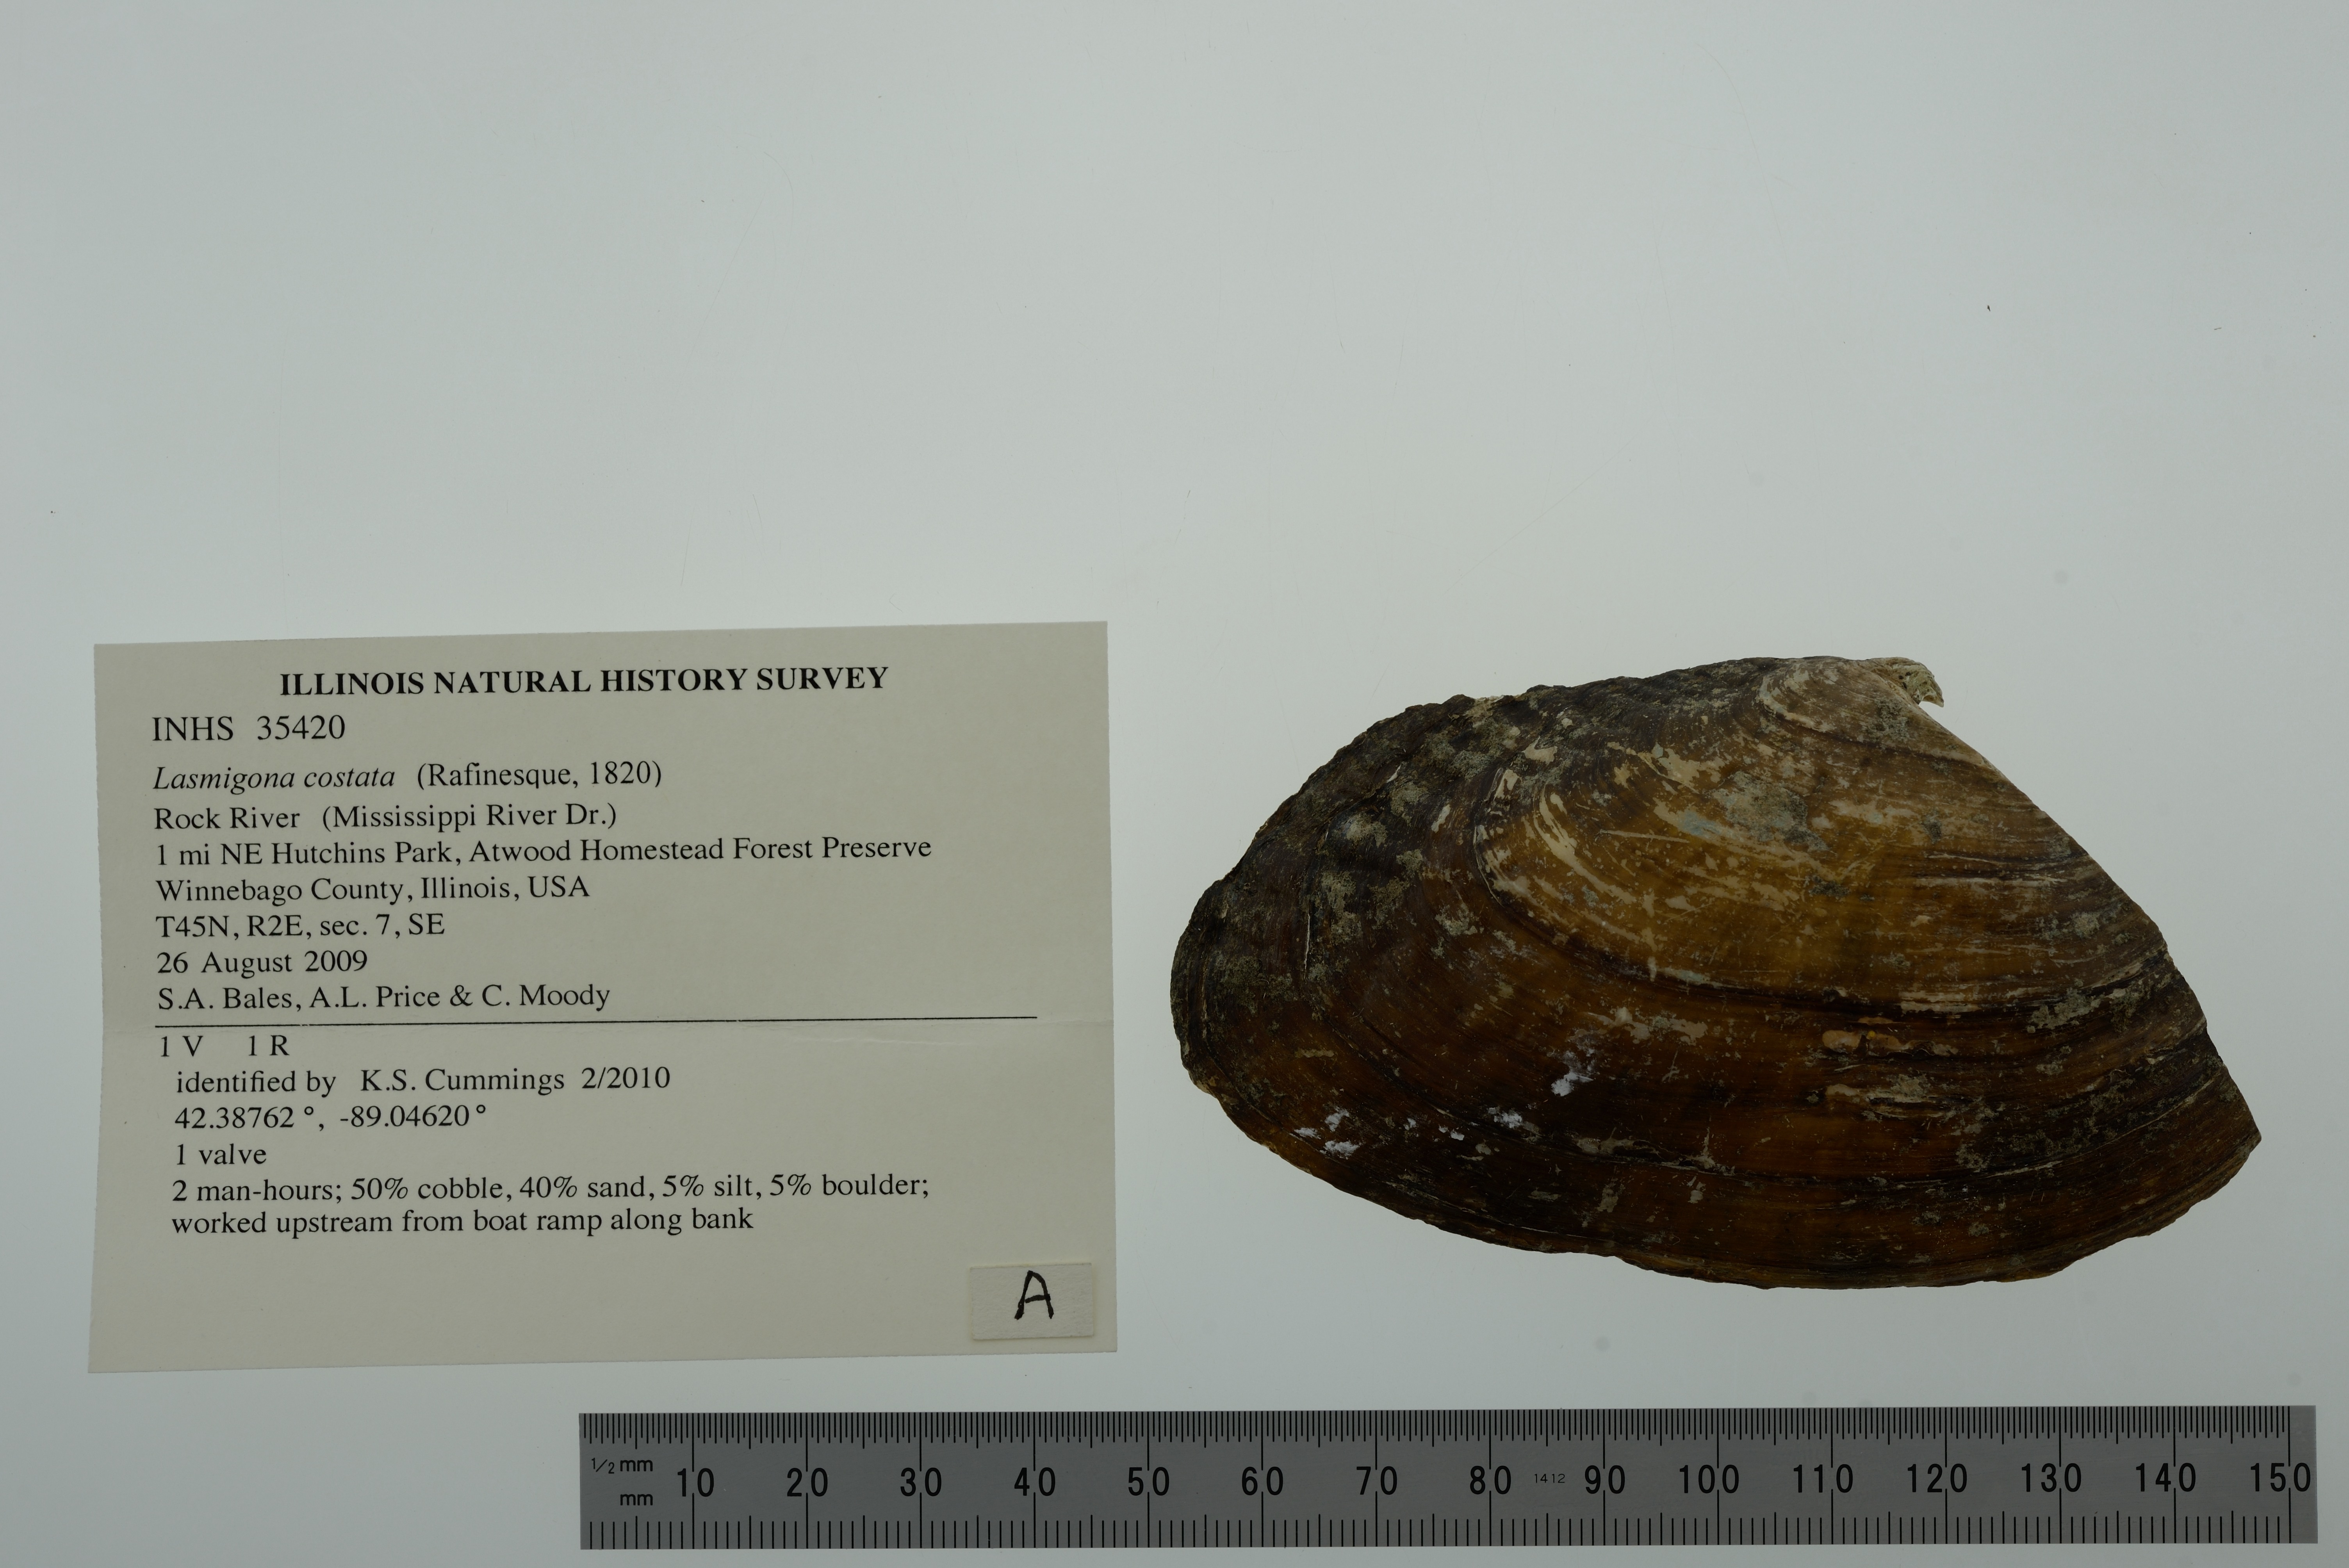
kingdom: Animalia
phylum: Mollusca
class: Bivalvia
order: Unionida
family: Unionidae
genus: Lasmigona
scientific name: Lasmigona costata
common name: Flutedshell
